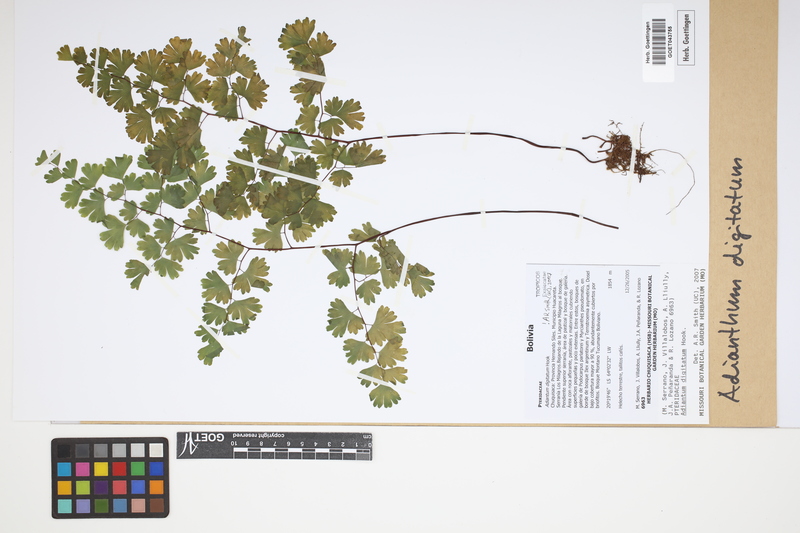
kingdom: Plantae
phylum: Tracheophyta
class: Polypodiopsida
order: Polypodiales
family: Pteridaceae
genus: Adiantum
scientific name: Adiantum digitatum
